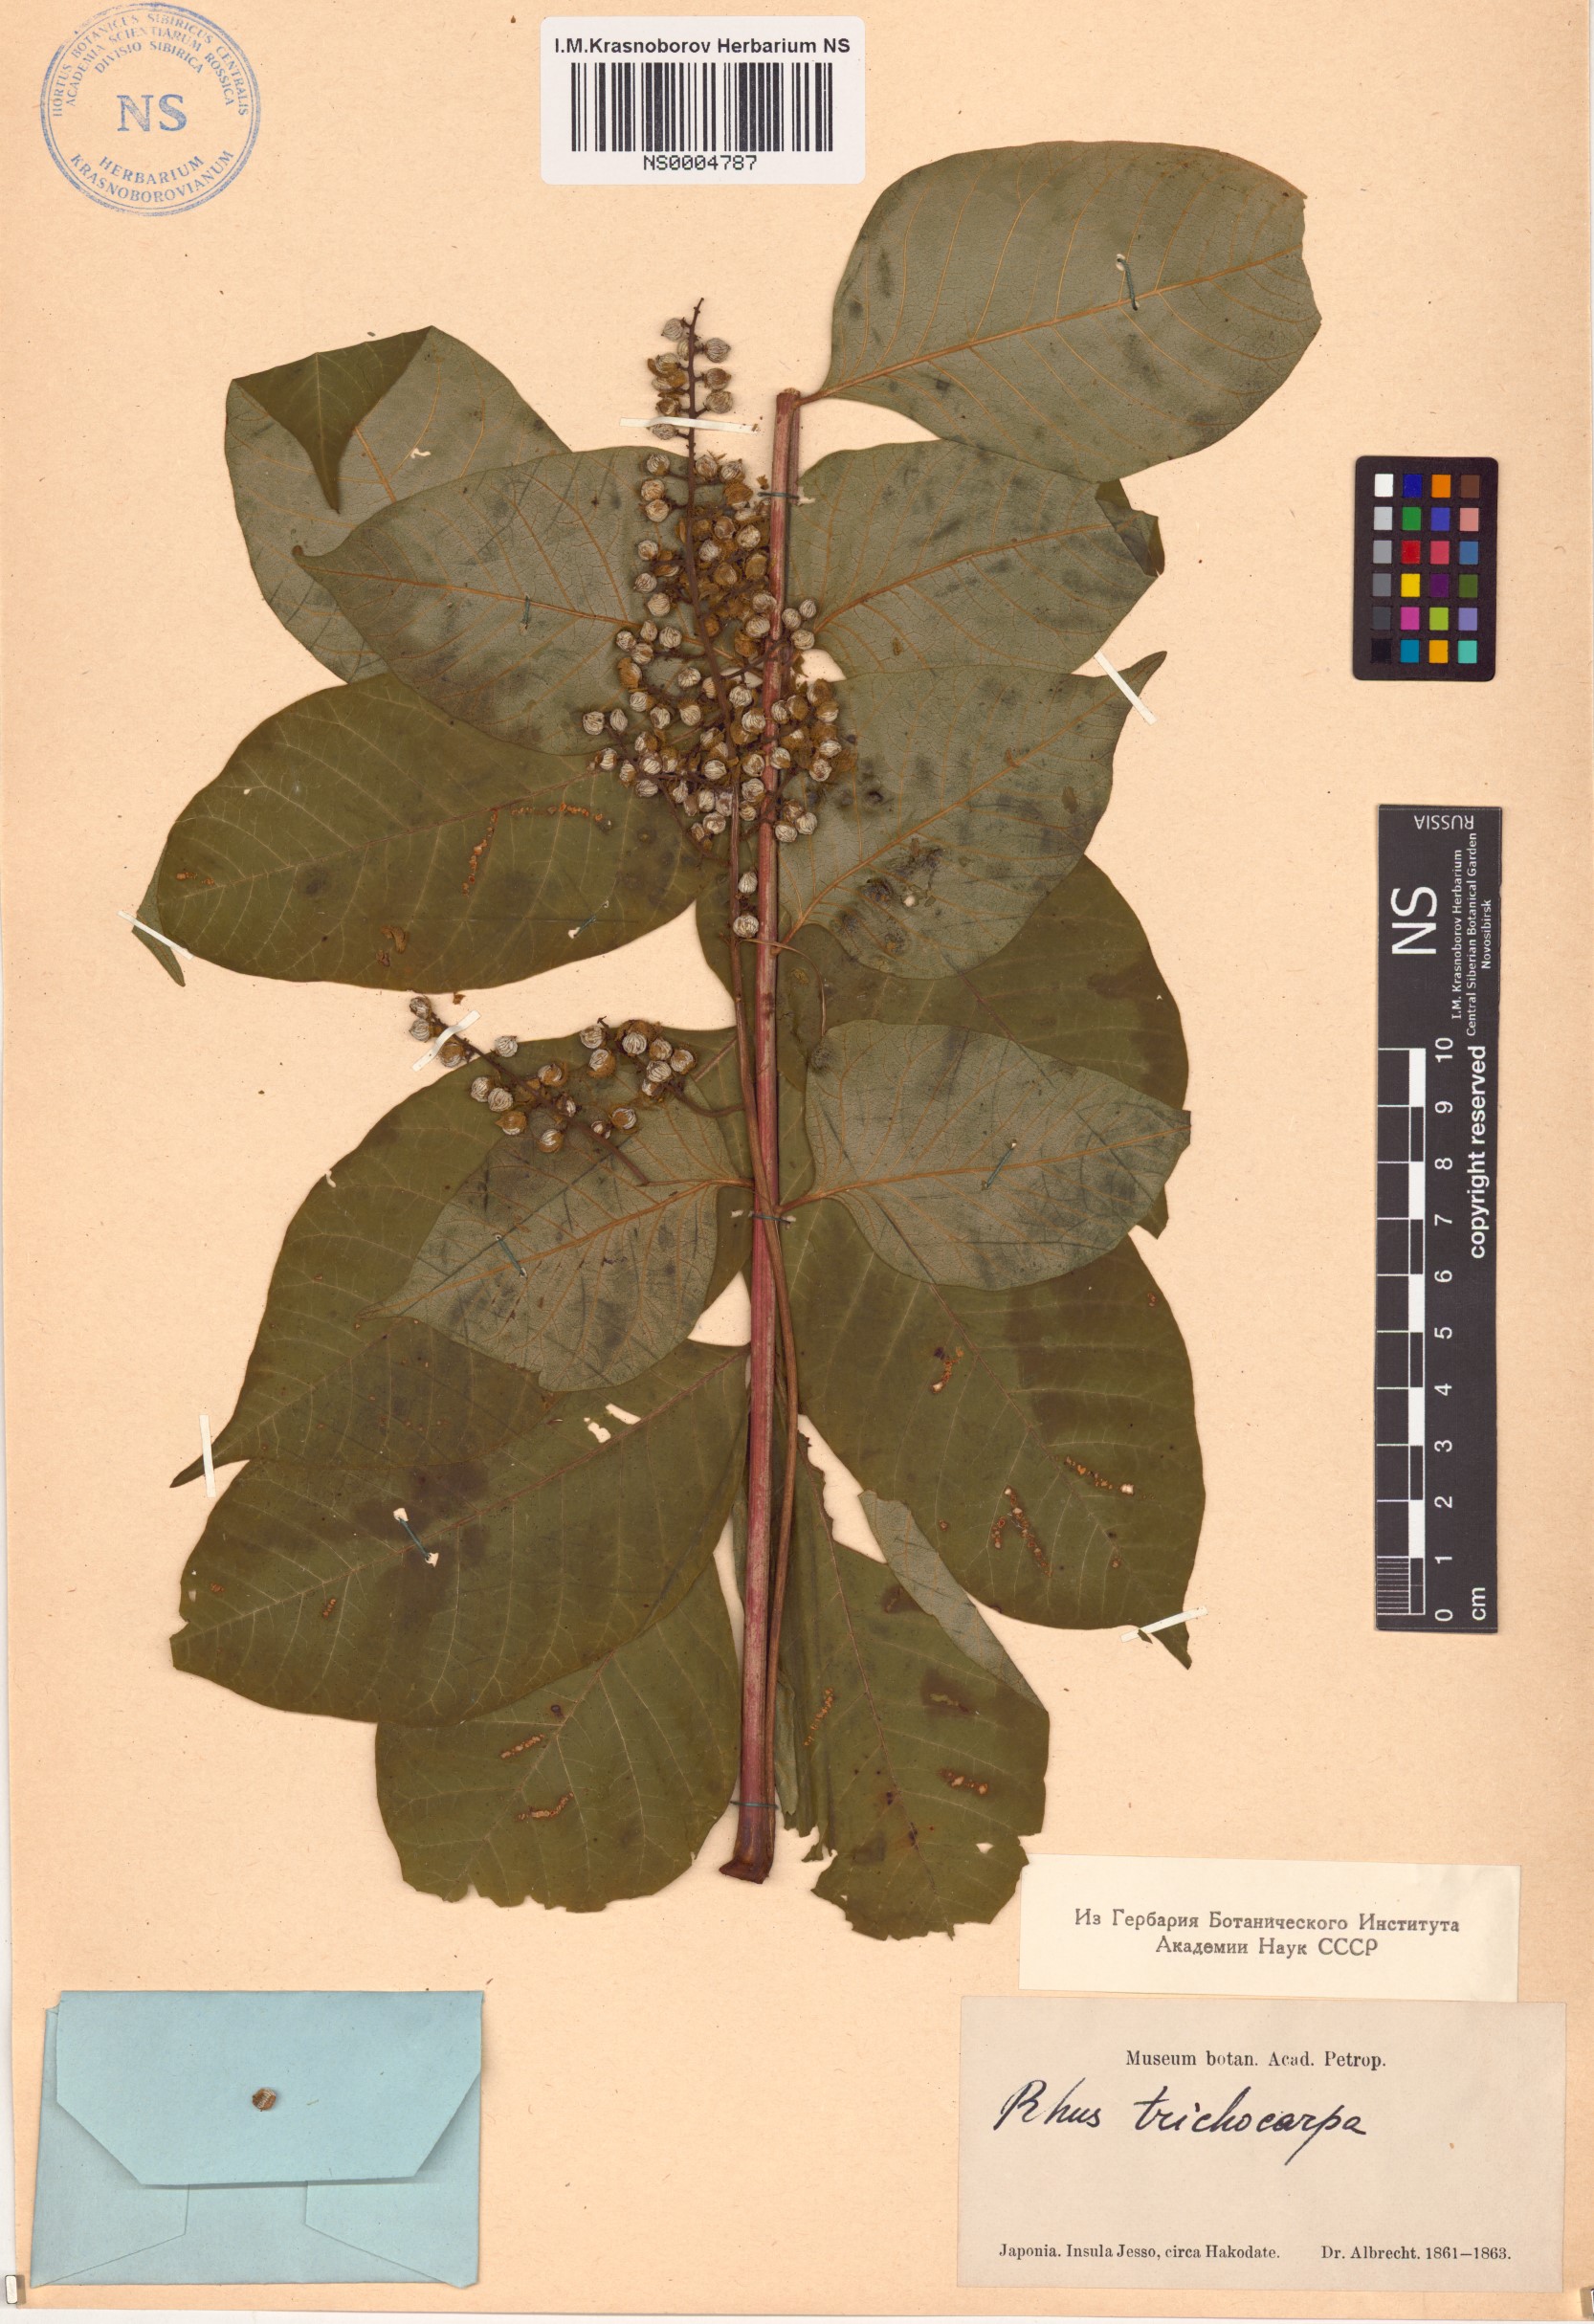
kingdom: Plantae
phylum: Tracheophyta
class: Magnoliopsida
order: Sapindales
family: Anacardiaceae
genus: Toxicodendron
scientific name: Toxicodendron trichocarpum
